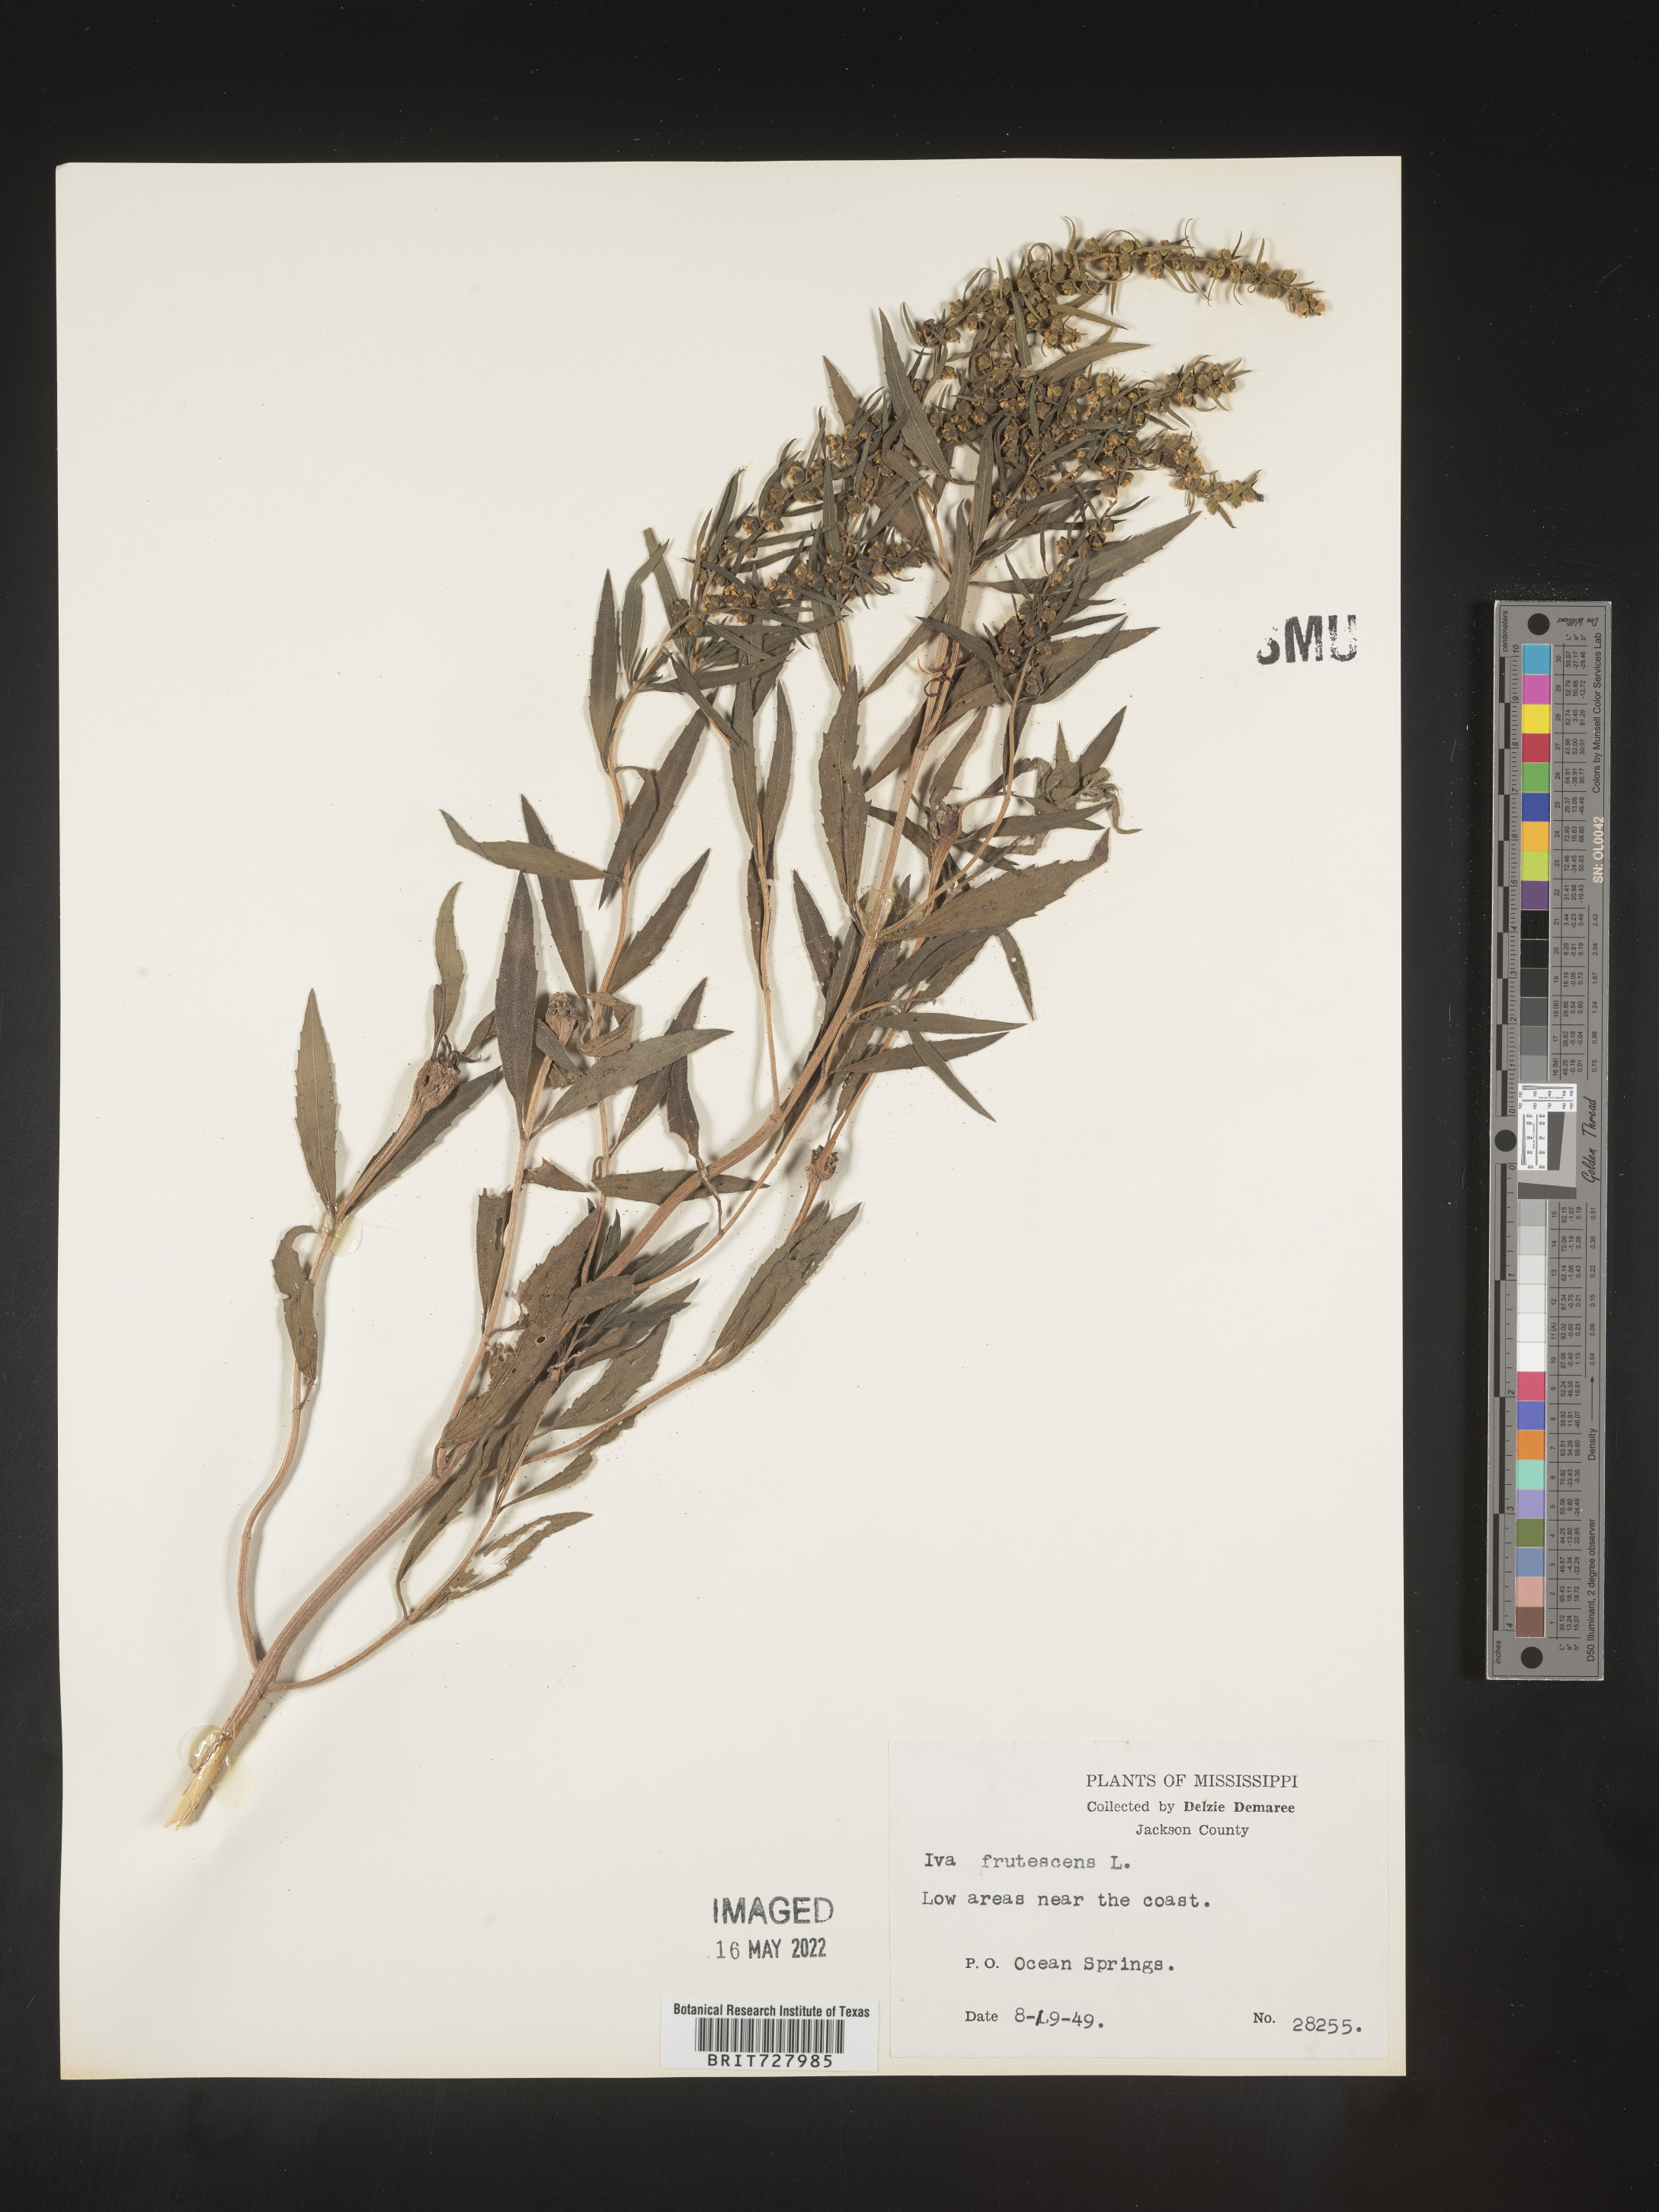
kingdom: Plantae
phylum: Tracheophyta
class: Magnoliopsida
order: Asterales
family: Asteraceae
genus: Iva
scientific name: Iva frutescens
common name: Big-leaved marsh-elder
